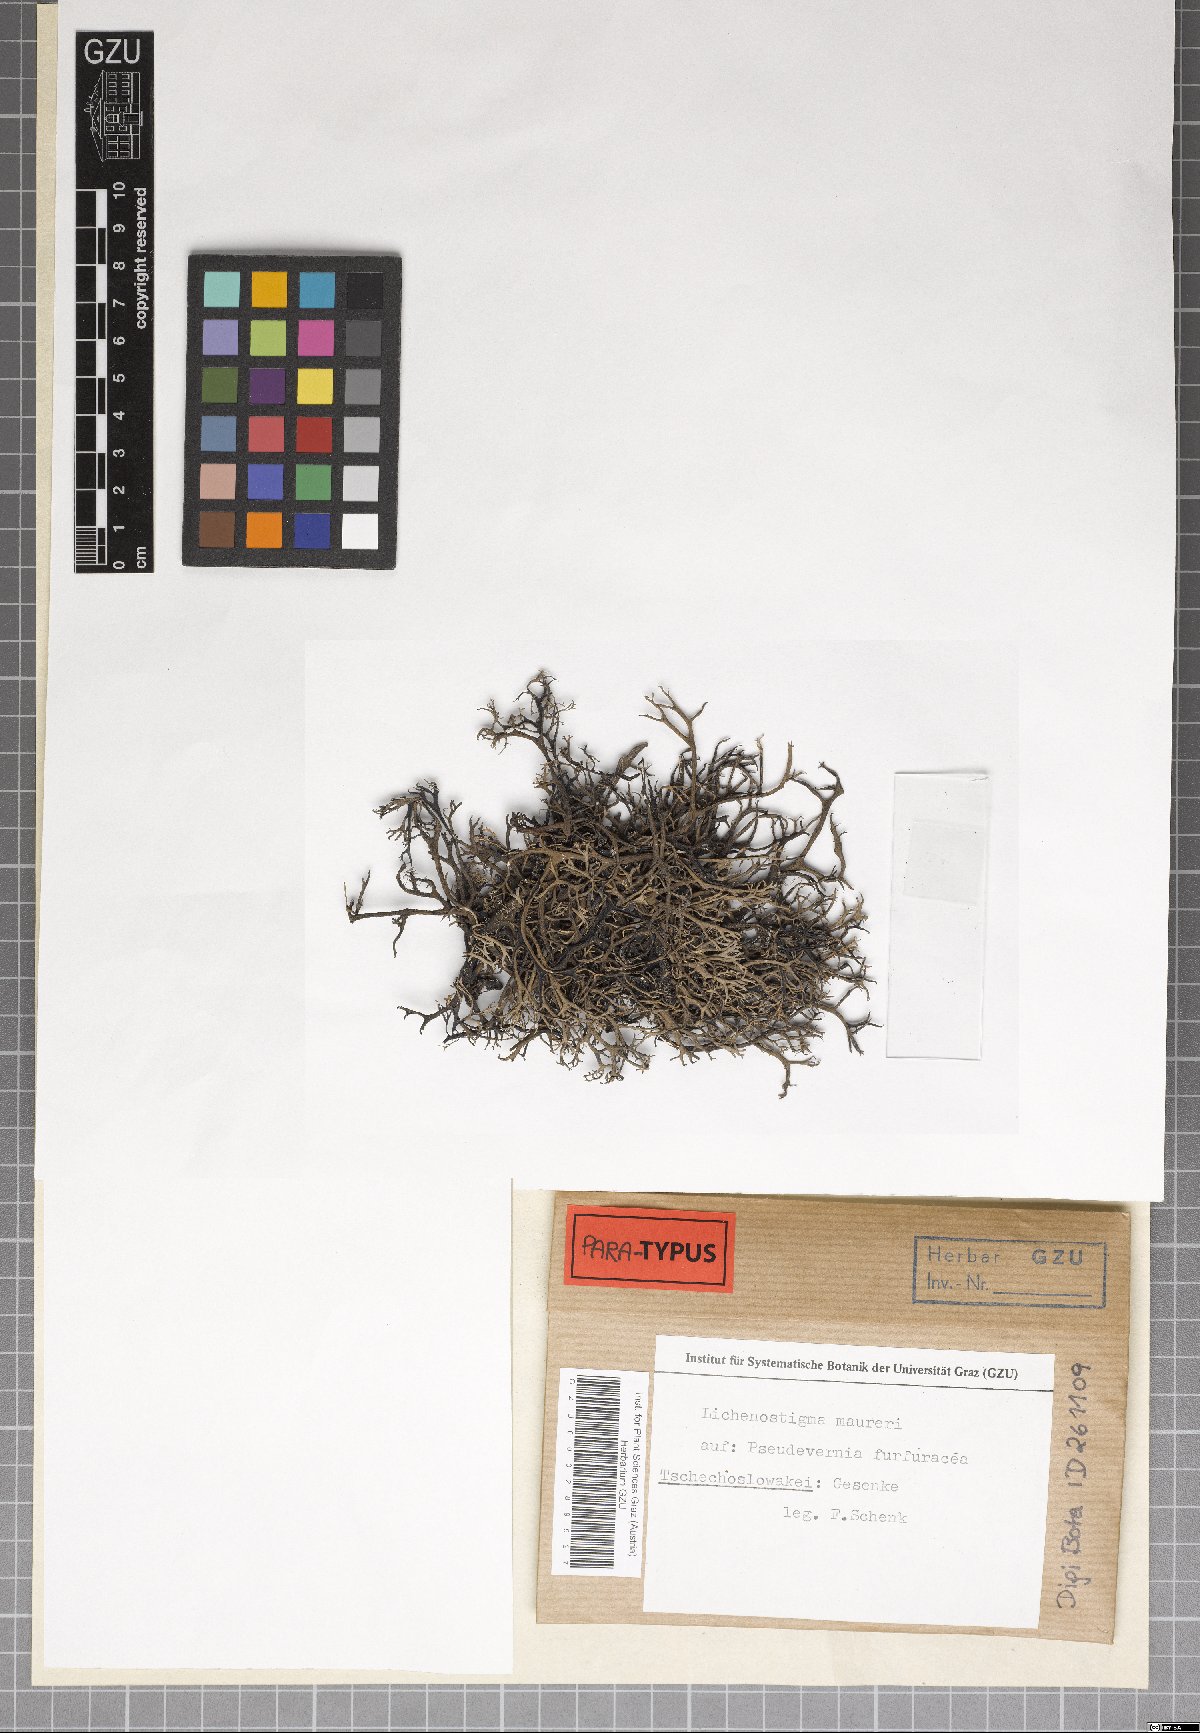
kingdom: Fungi
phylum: Ascomycota
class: Arthoniomycetes
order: Lichenostigmatales
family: Phaeococcomycetaceae
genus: Lichenostigma
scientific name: Lichenostigma maureri
